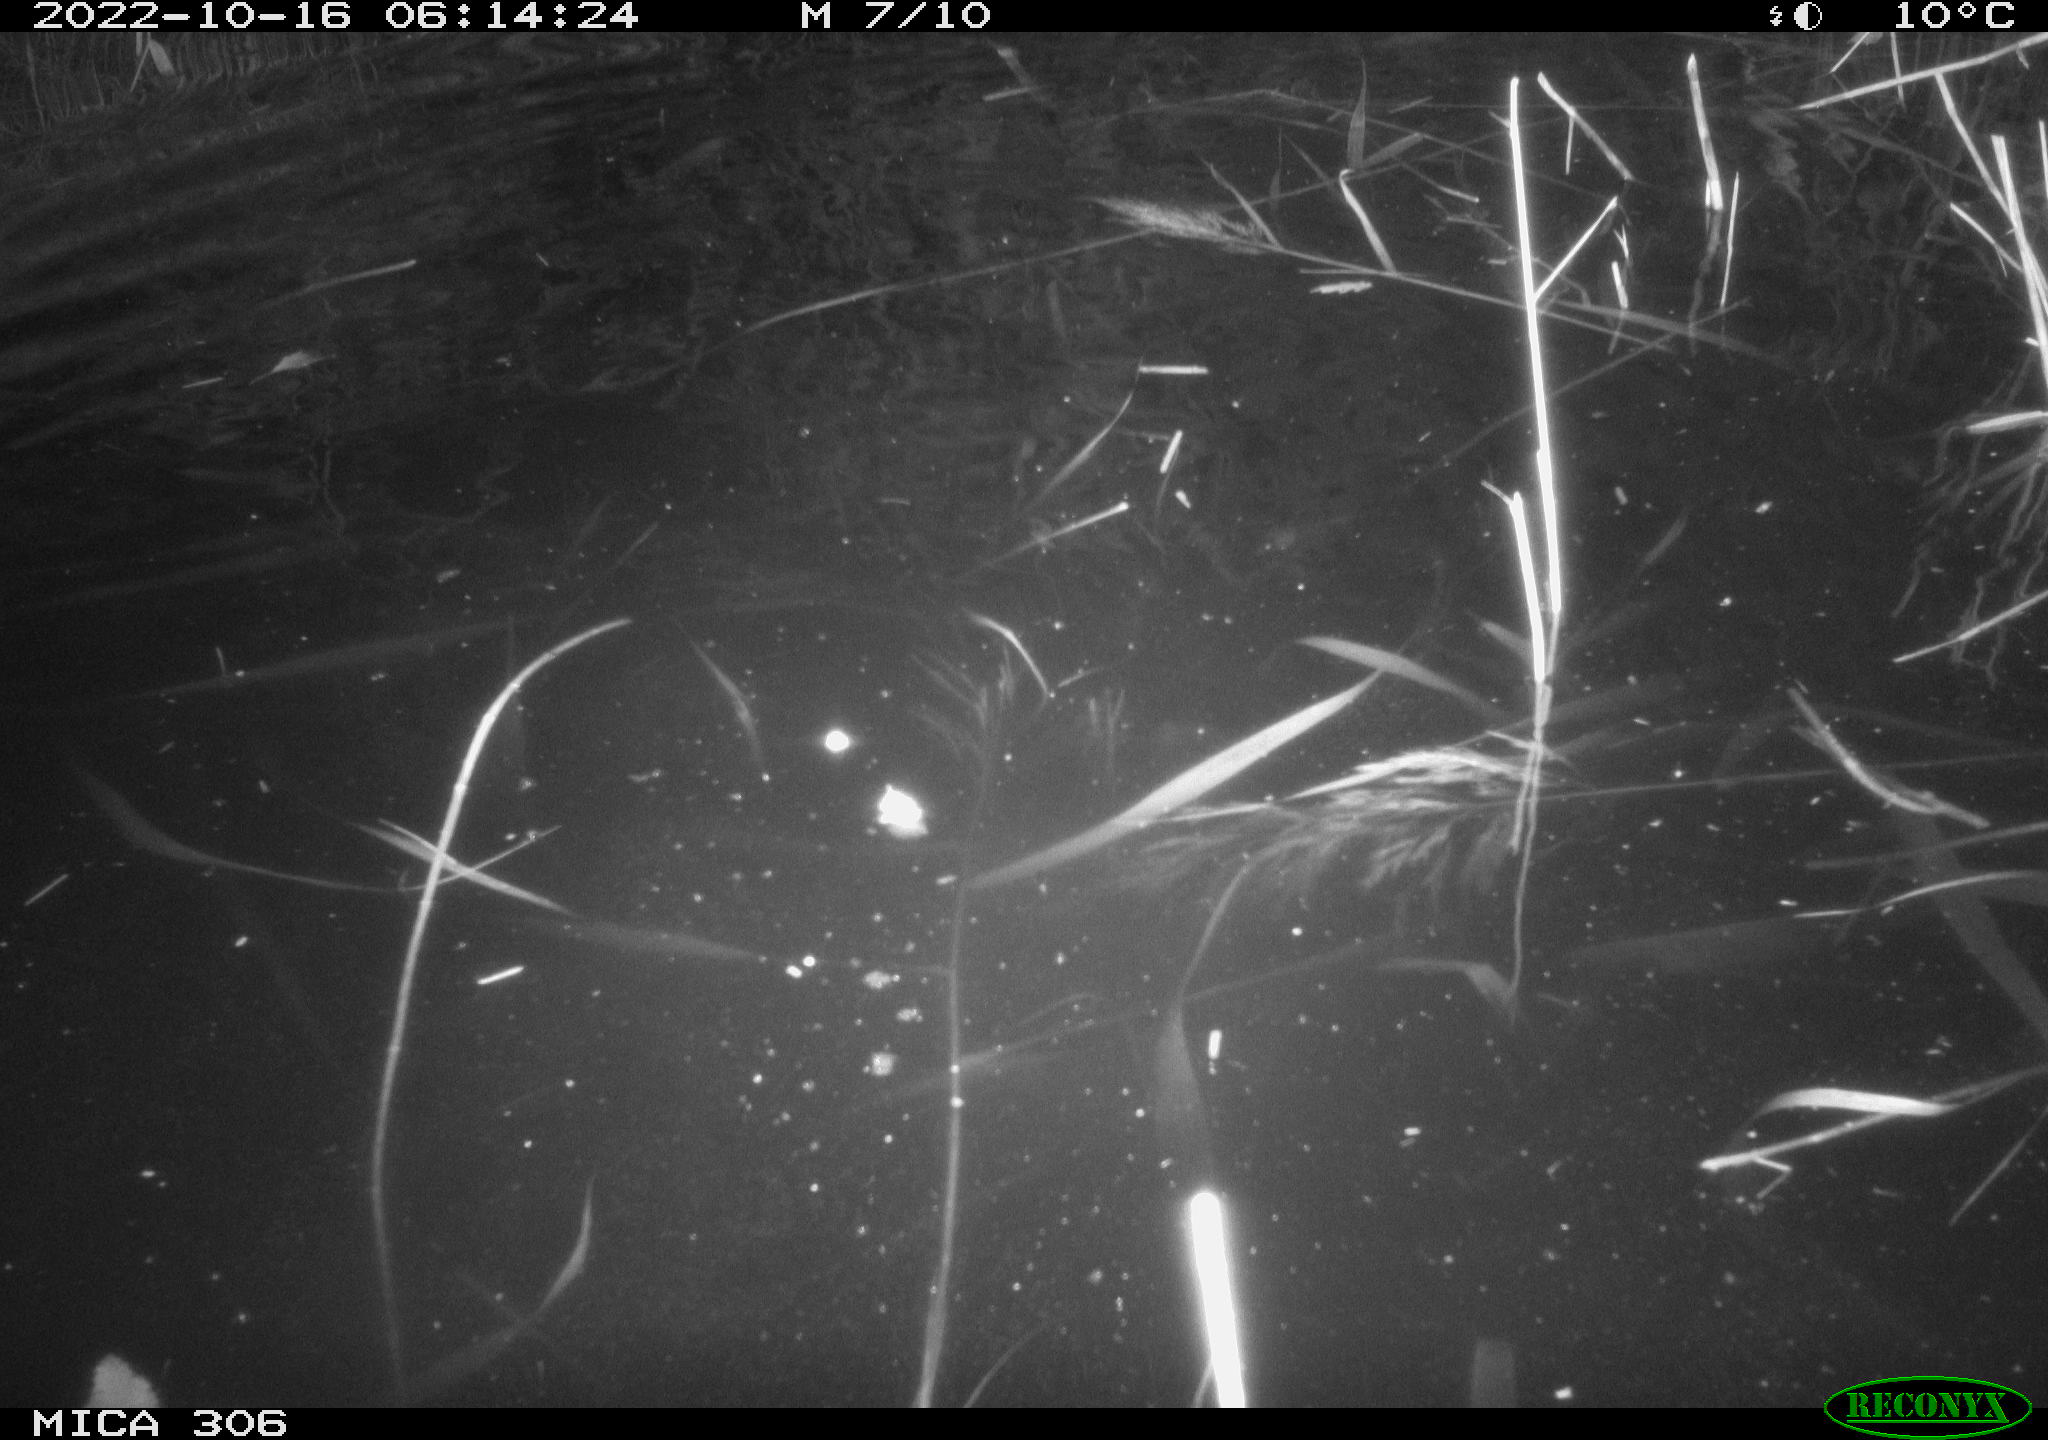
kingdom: Animalia
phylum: Chordata
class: Mammalia
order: Rodentia
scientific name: Rodentia
